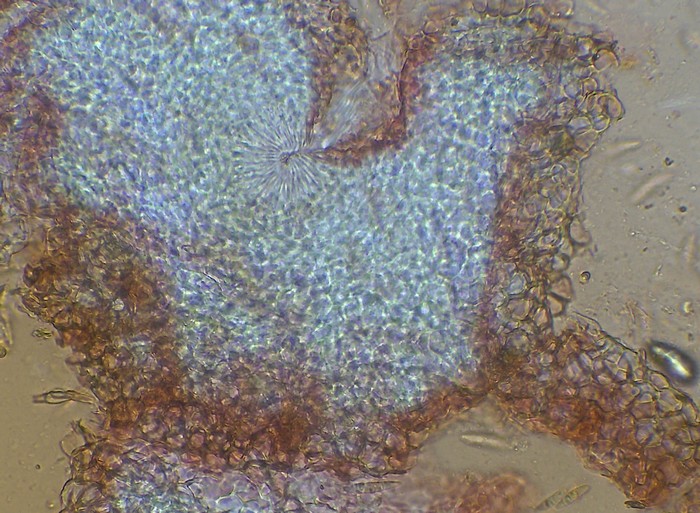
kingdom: Fungi
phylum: Ascomycota
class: Sordariomycetes
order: Hypocreales
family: Nectriaceae
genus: Hydropisphaera
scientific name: Hydropisphaera erubescens
